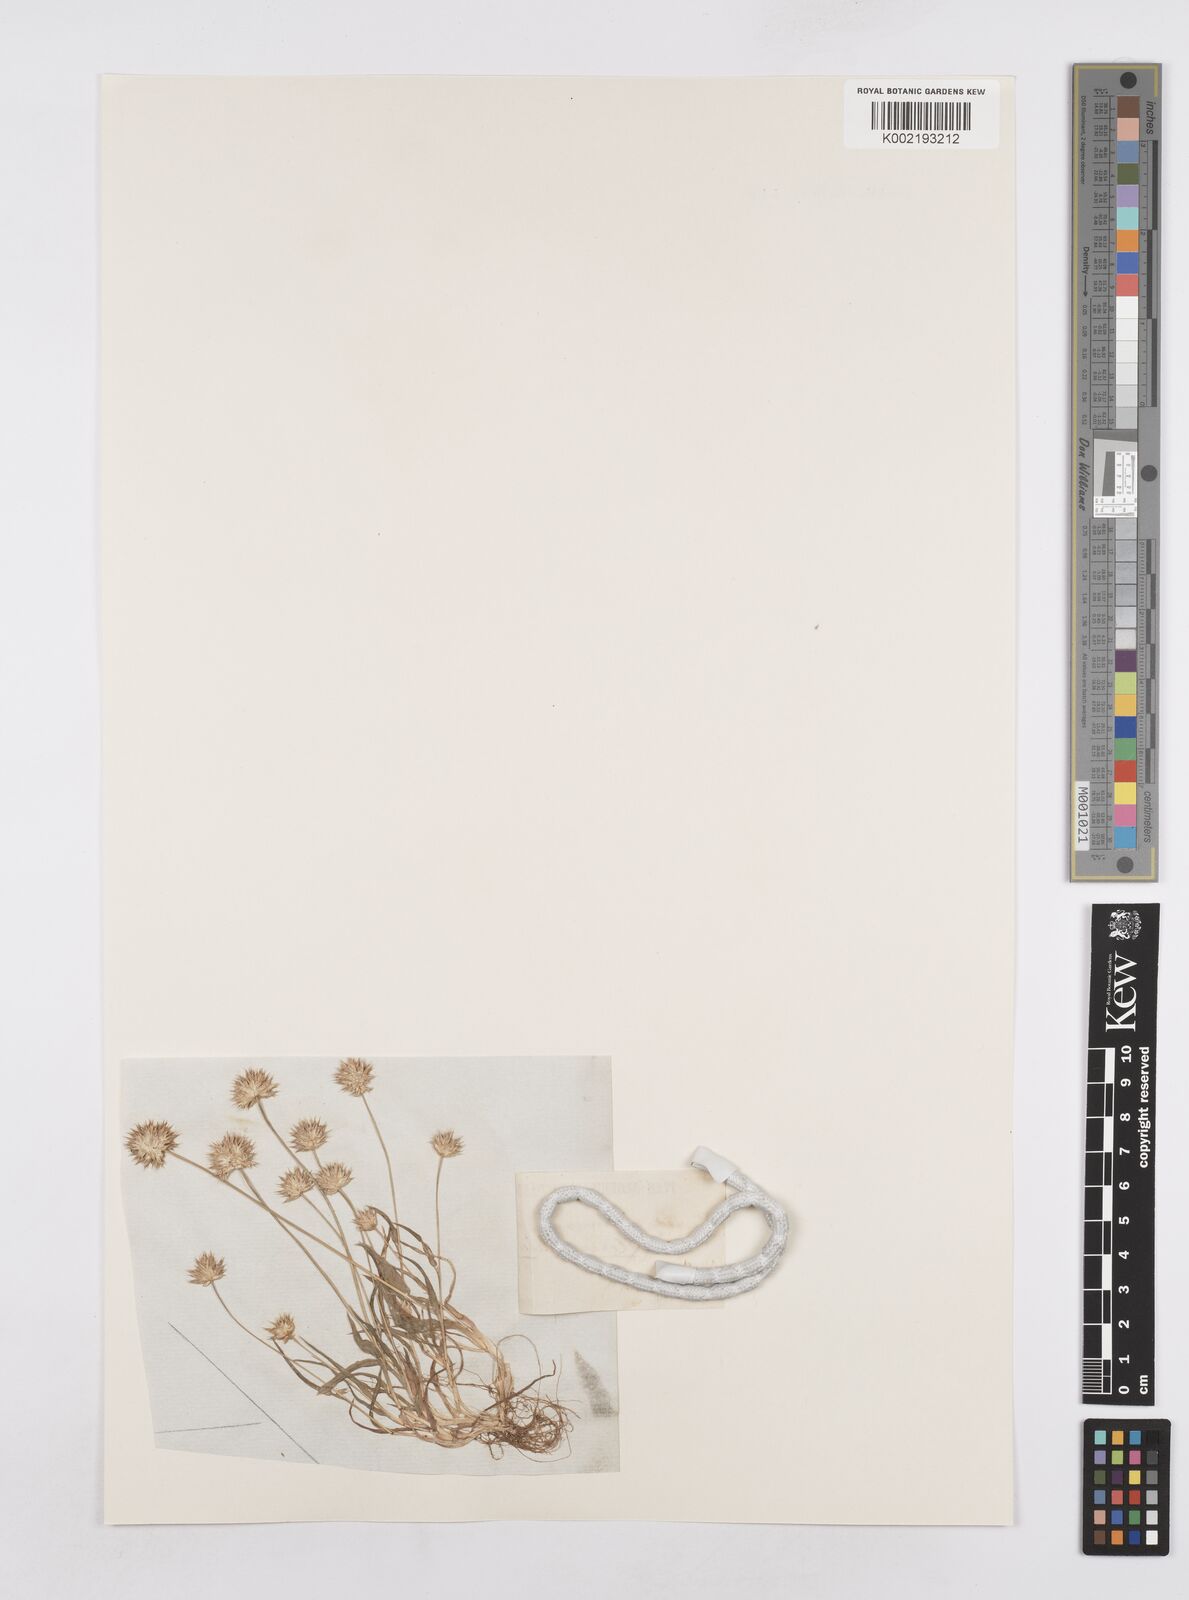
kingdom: Plantae
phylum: Tracheophyta
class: Liliopsida
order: Poales
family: Poaceae
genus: Ammochloa
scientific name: Ammochloa pungens
